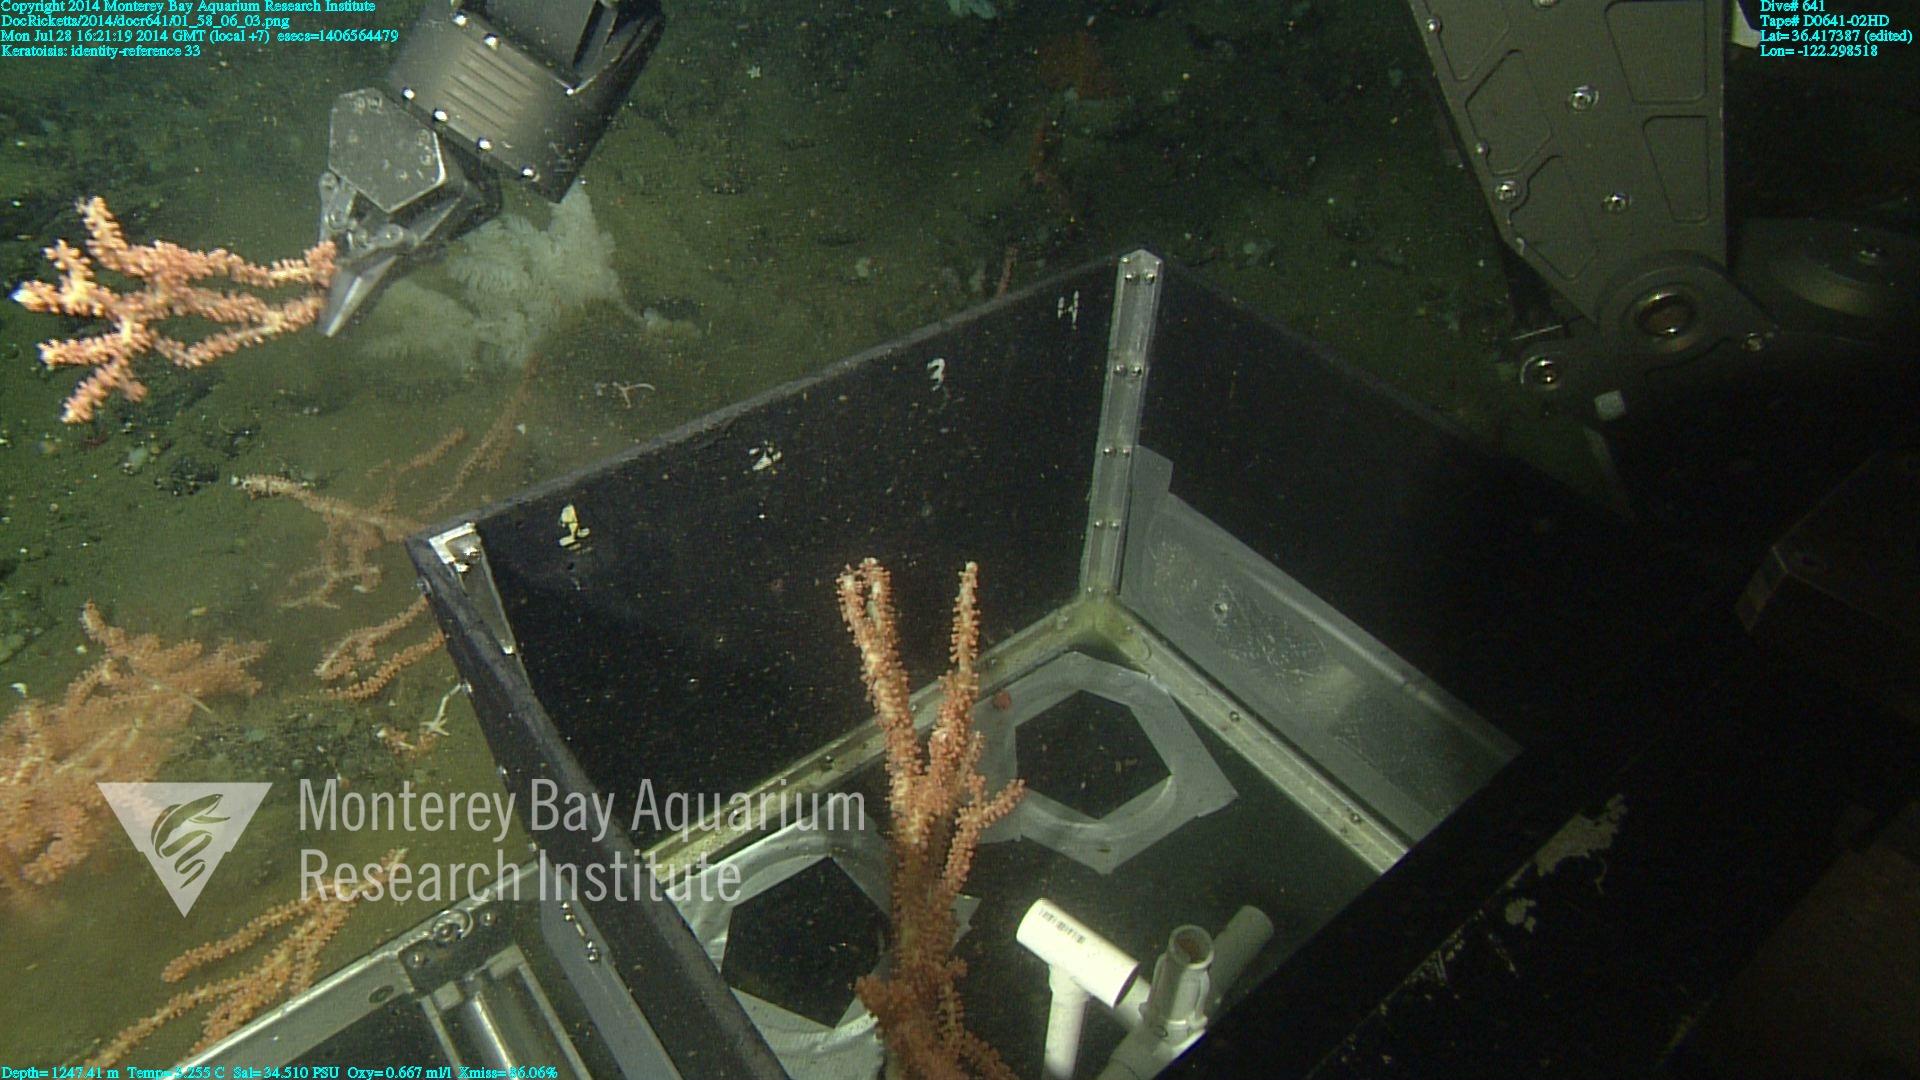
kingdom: Animalia
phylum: Cnidaria
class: Anthozoa
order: Scleralcyonacea
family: Keratoisididae
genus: Keratoisis
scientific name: Keratoisis
